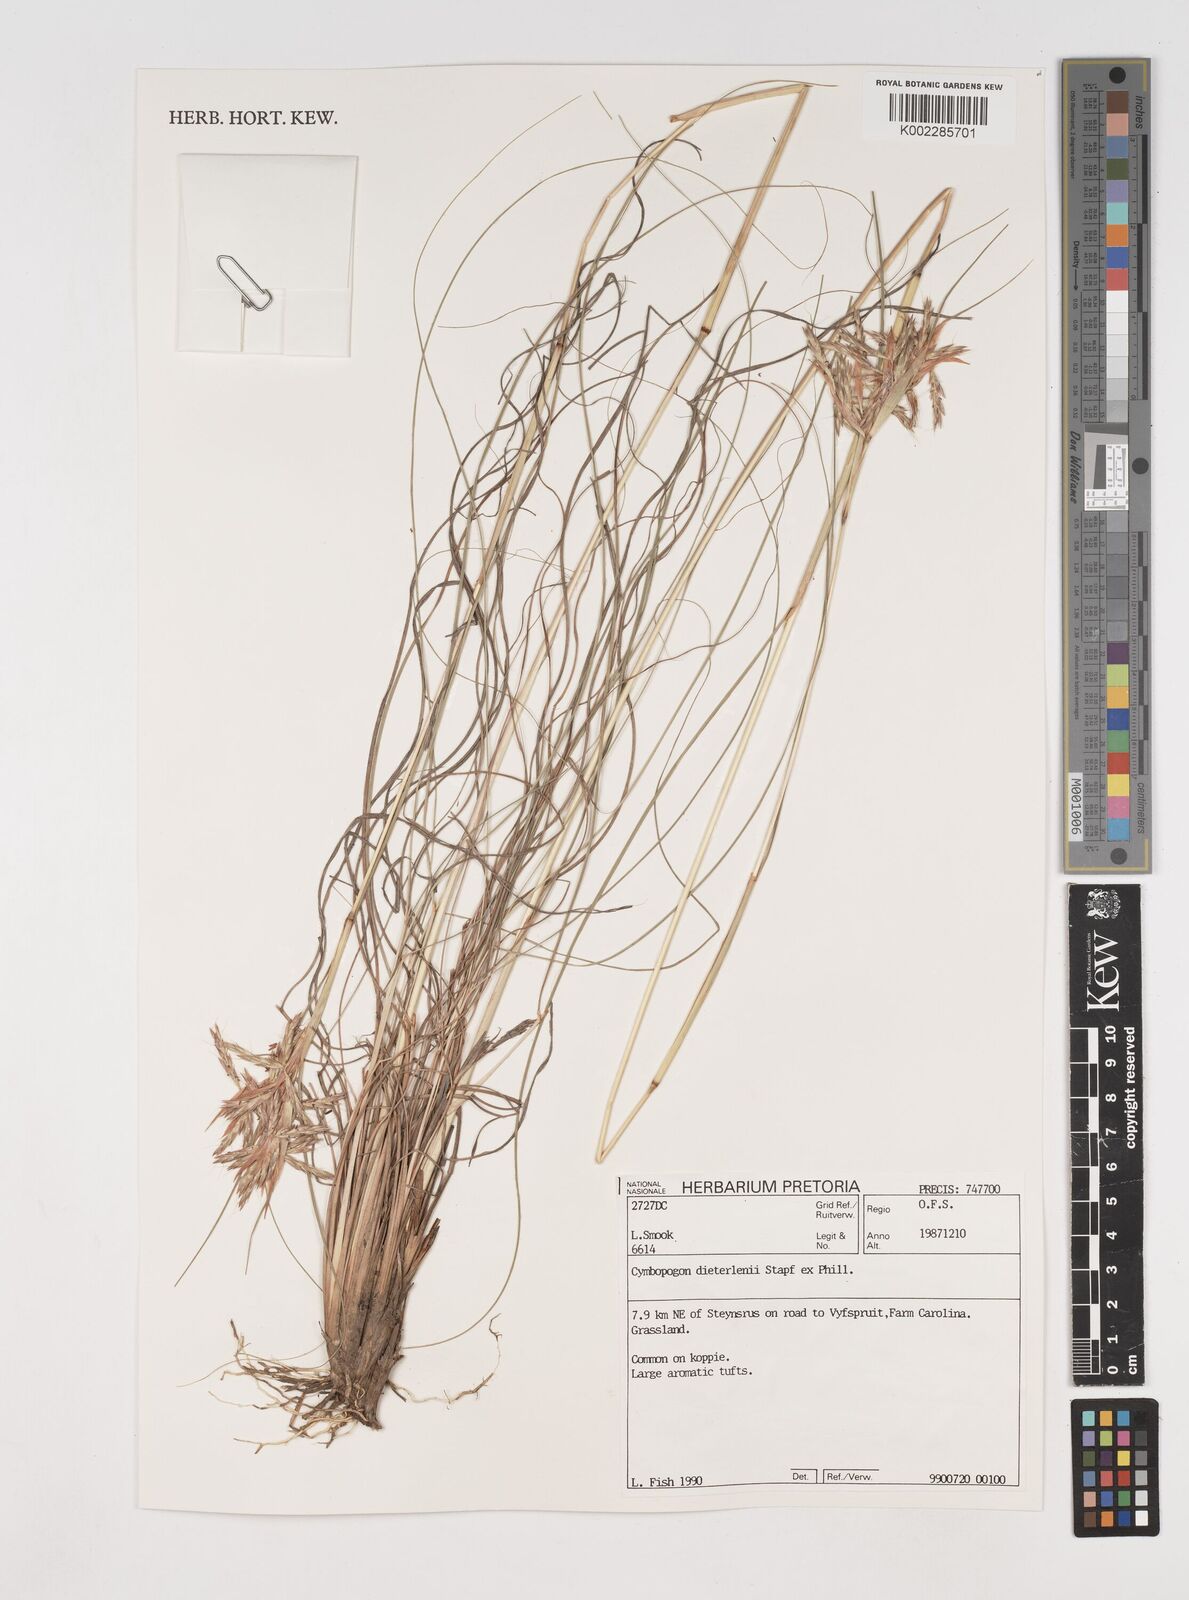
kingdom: Plantae
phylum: Tracheophyta
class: Liliopsida
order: Poales
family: Poaceae
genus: Cymbopogon
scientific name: Cymbopogon dieterlenii
